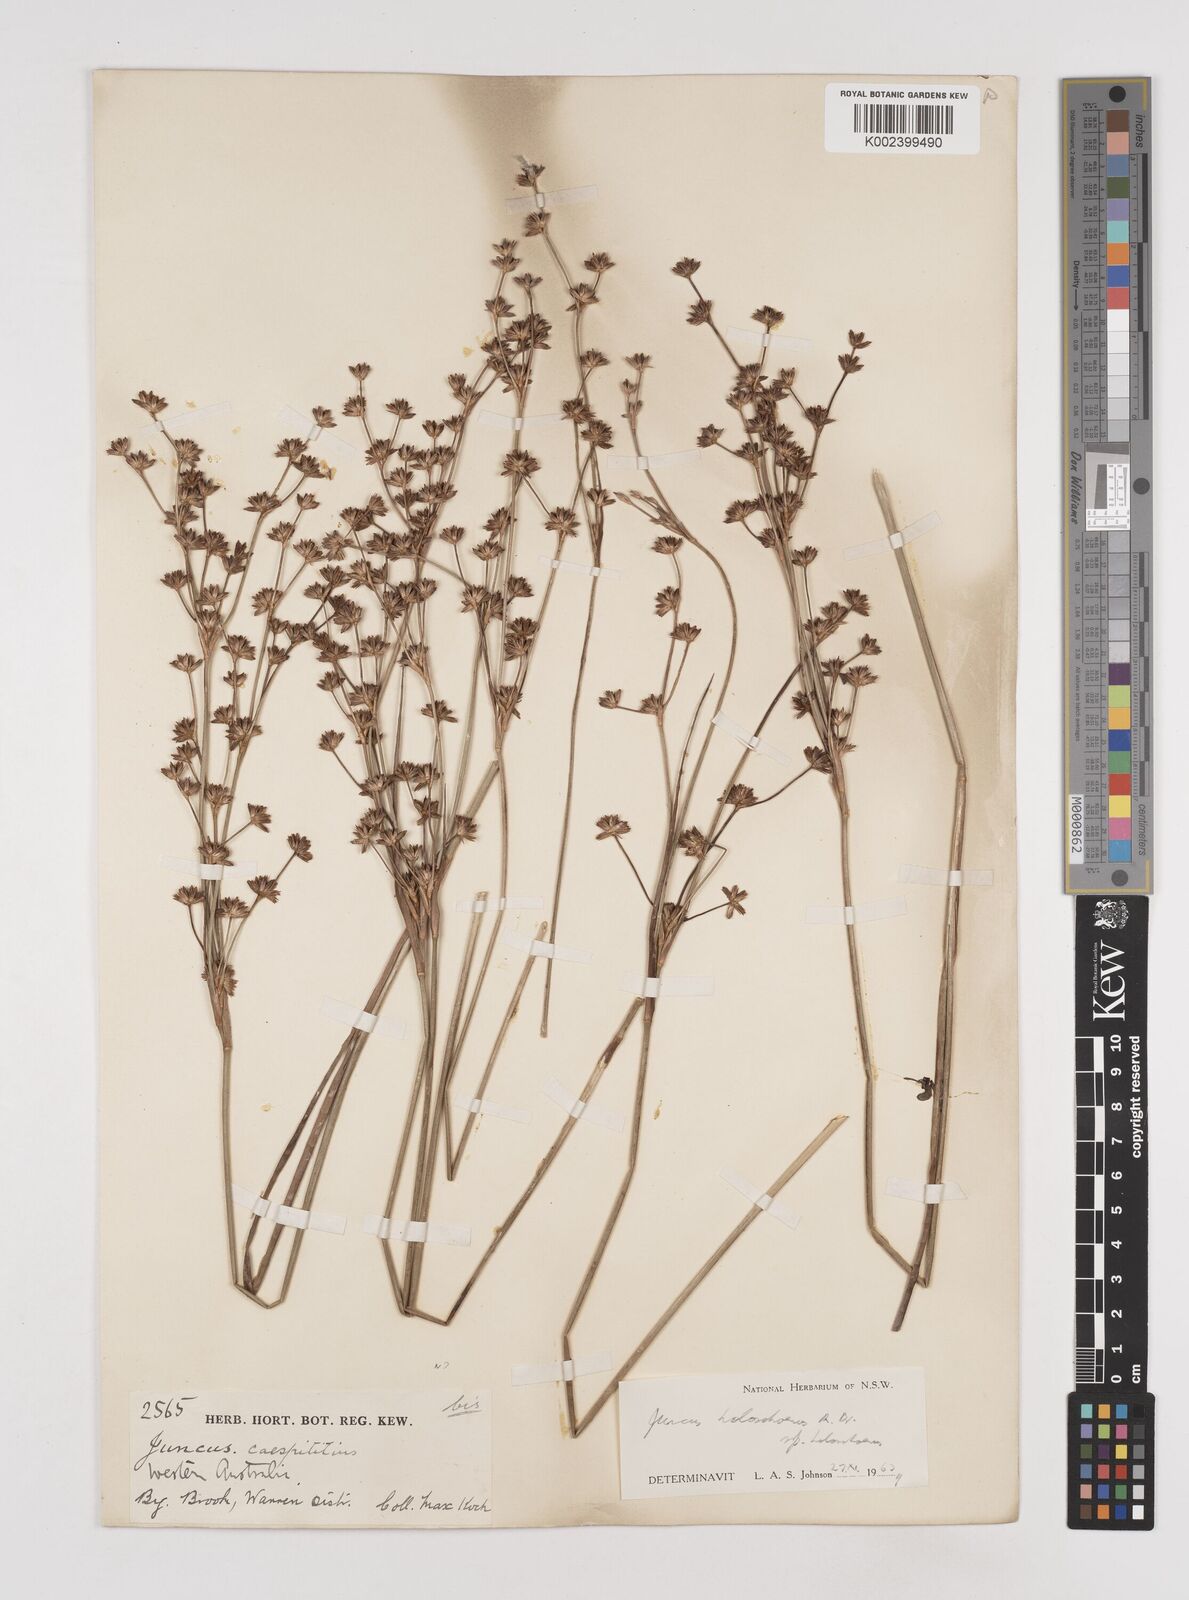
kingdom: Plantae
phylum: Tracheophyta
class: Liliopsida
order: Poales
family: Juncaceae
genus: Juncus
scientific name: Juncus holoschoenus
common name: Joint-leaf rush
